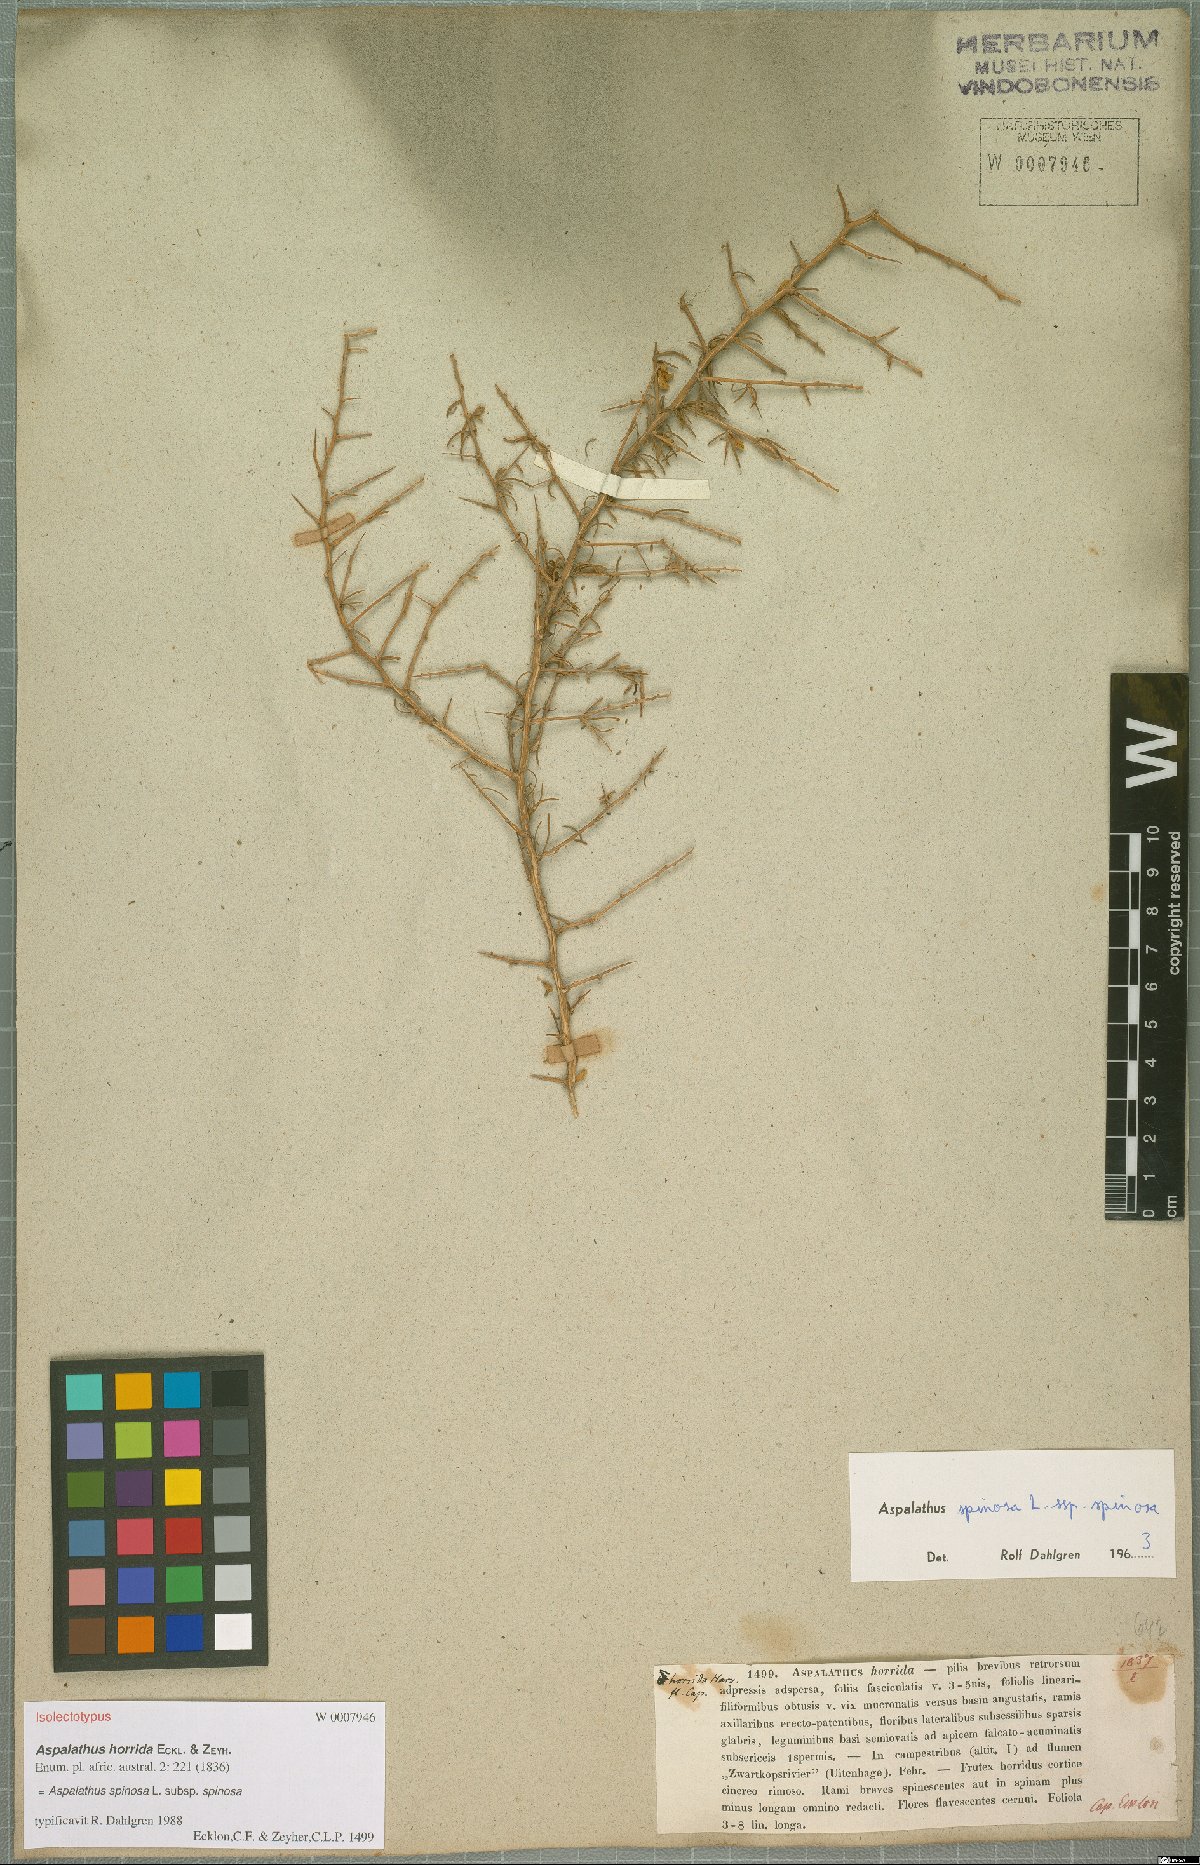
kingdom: Plantae
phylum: Tracheophyta
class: Magnoliopsida
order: Fabales
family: Fabaceae
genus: Aspalathus
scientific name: Aspalathus spinosa
